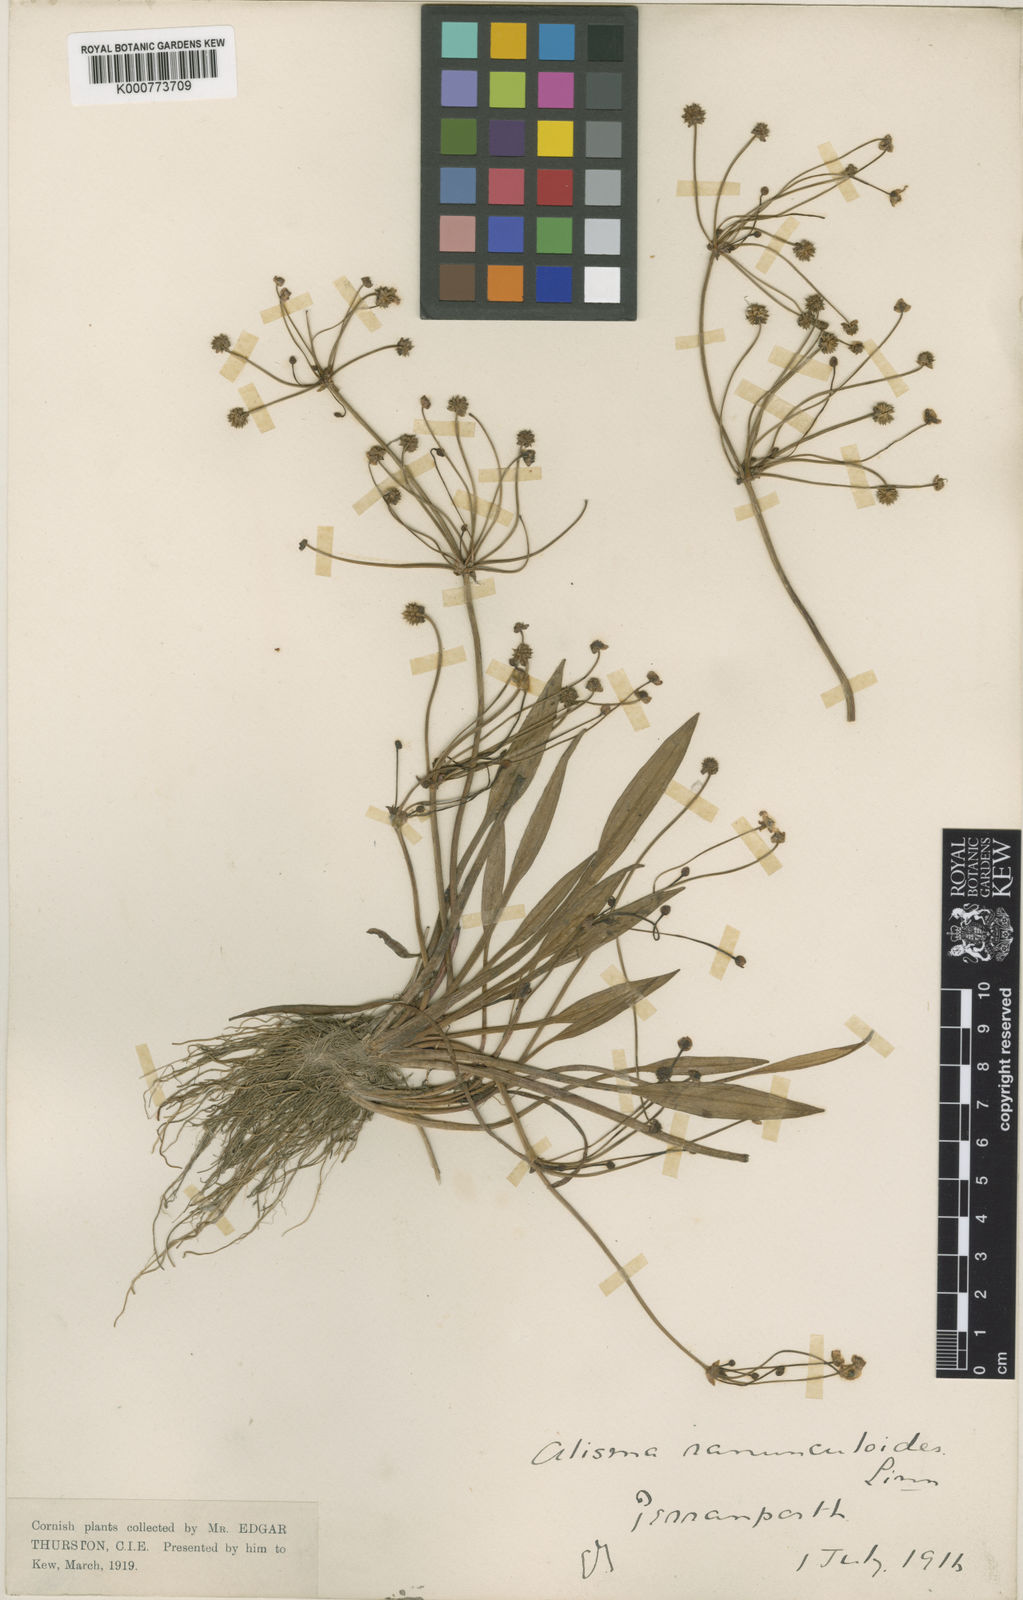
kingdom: Plantae
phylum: Tracheophyta
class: Liliopsida
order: Alismatales
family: Alismataceae
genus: Baldellia
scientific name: Baldellia ranunculoides
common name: Lesser water-plantain
